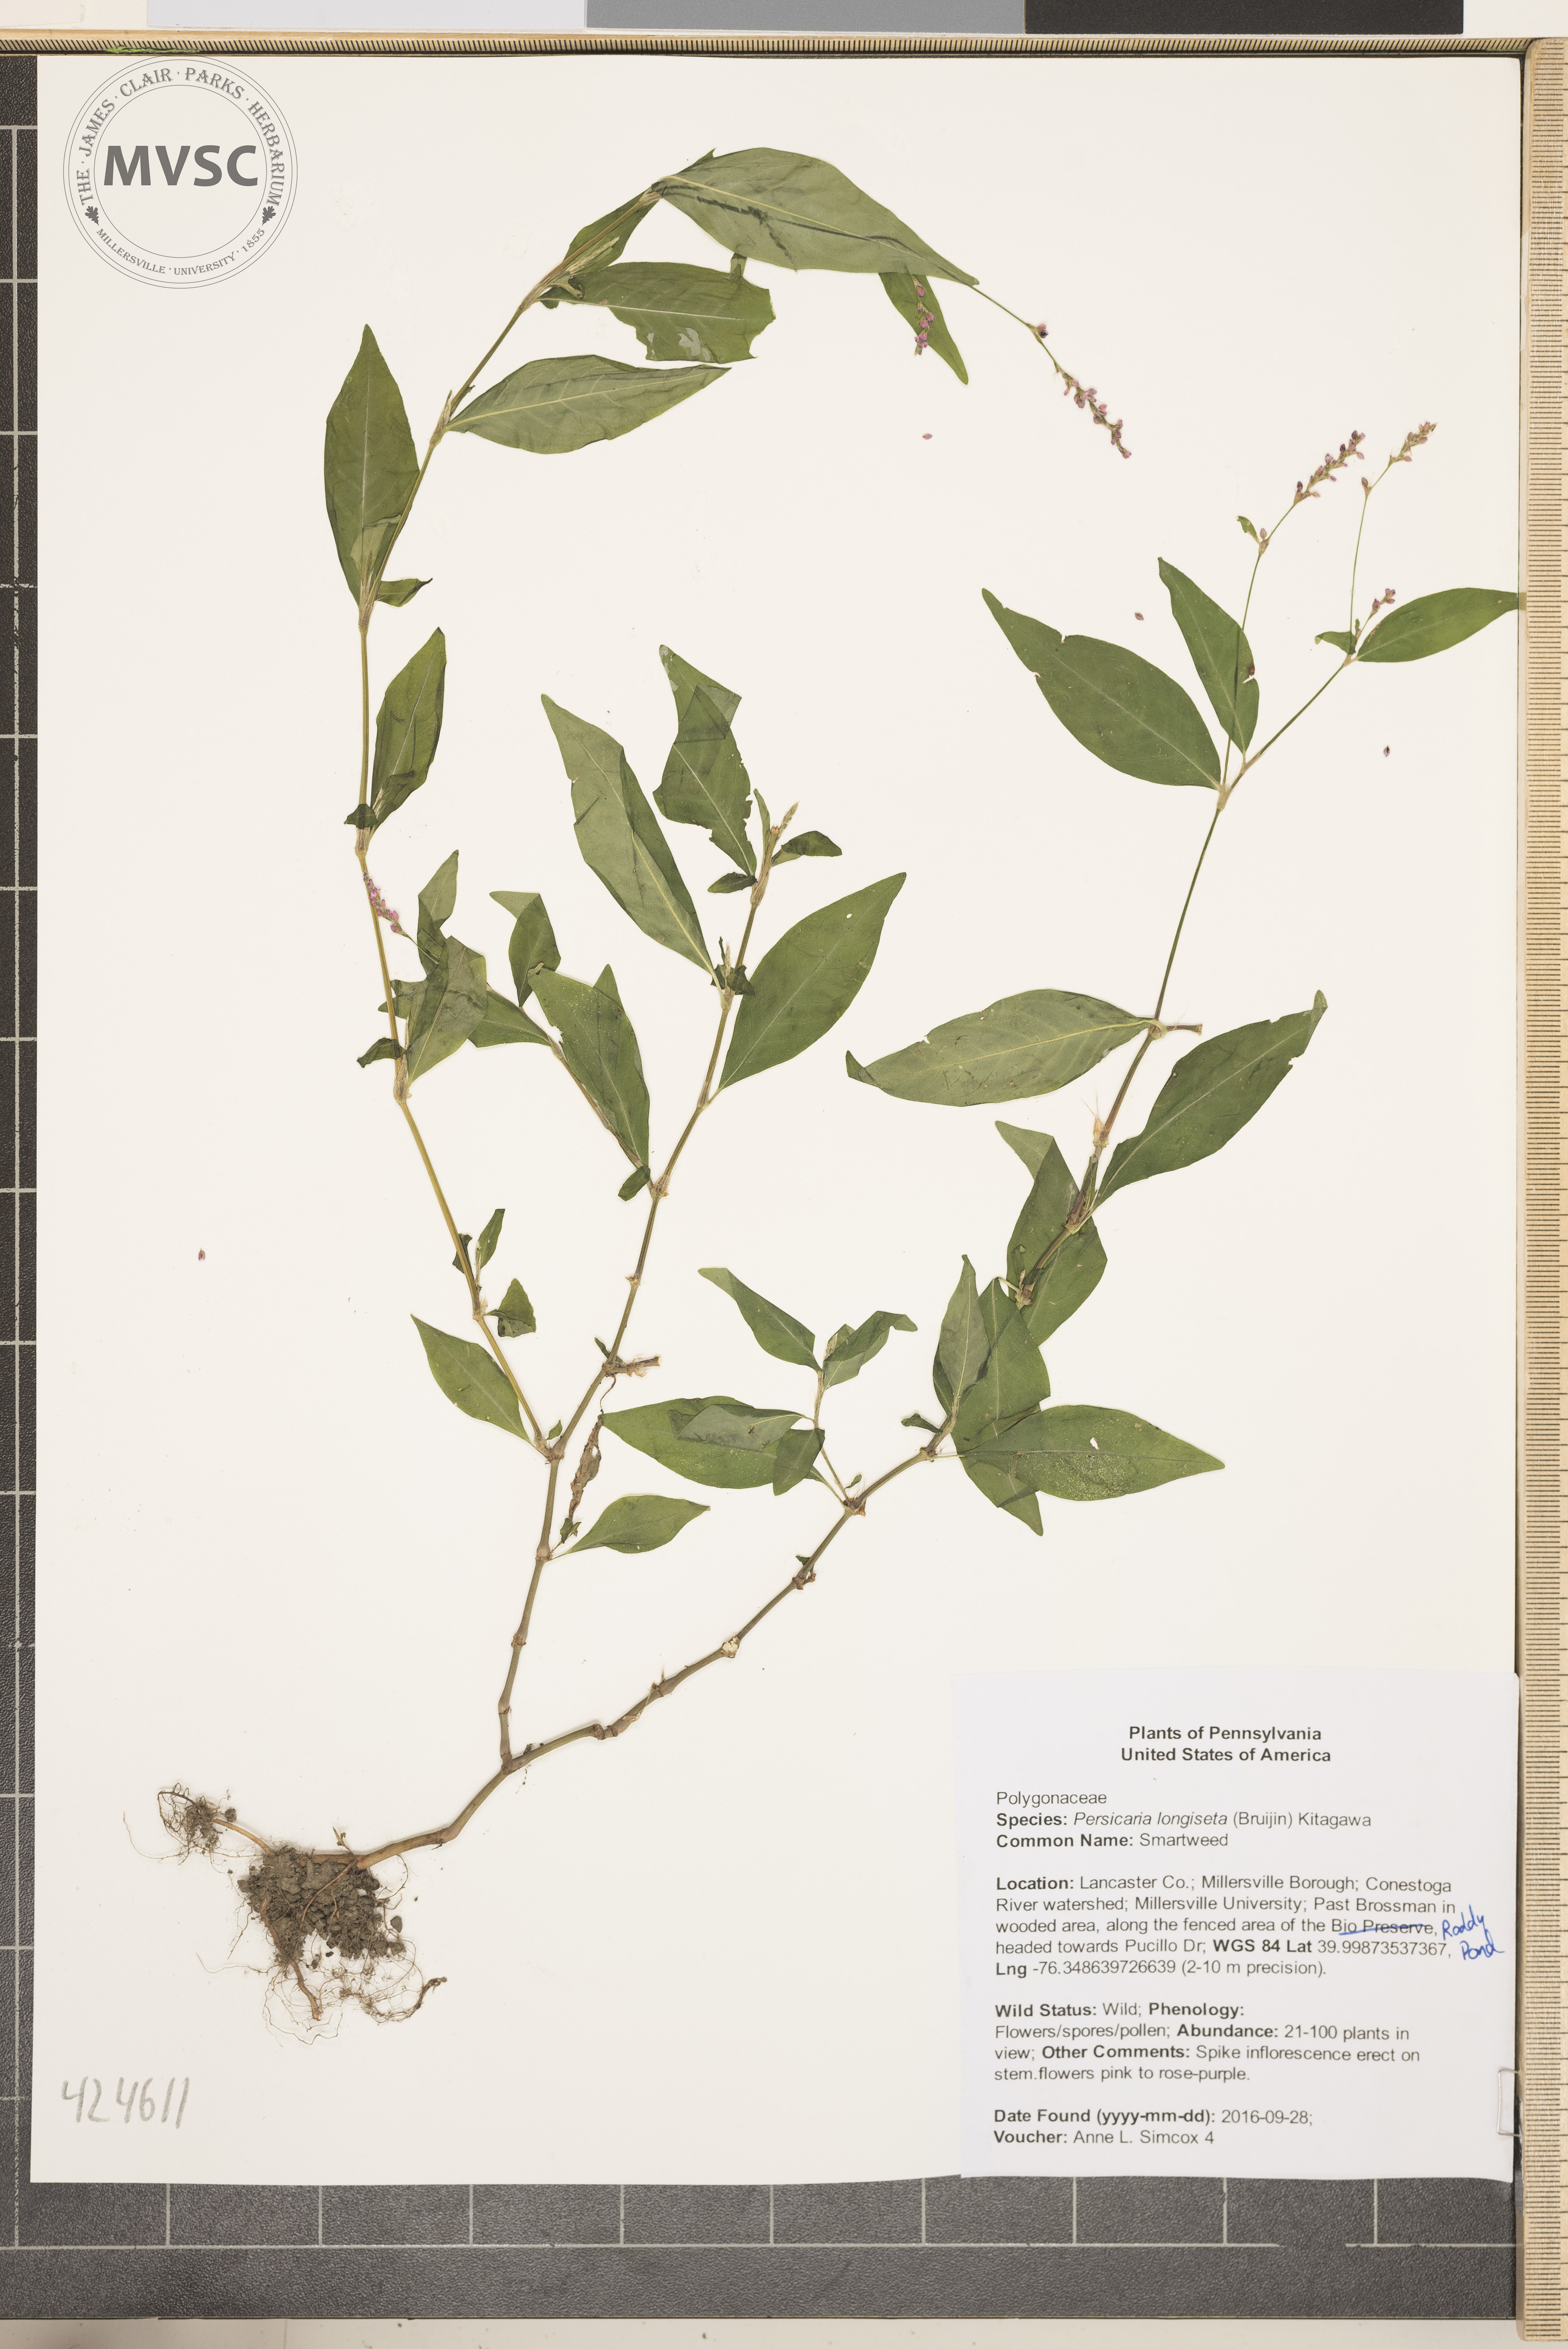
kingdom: Plantae
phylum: Tracheophyta
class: Magnoliopsida
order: Caryophyllales
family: Polygonaceae
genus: Persicaria
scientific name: Persicaria longiseta
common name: Smartweed
